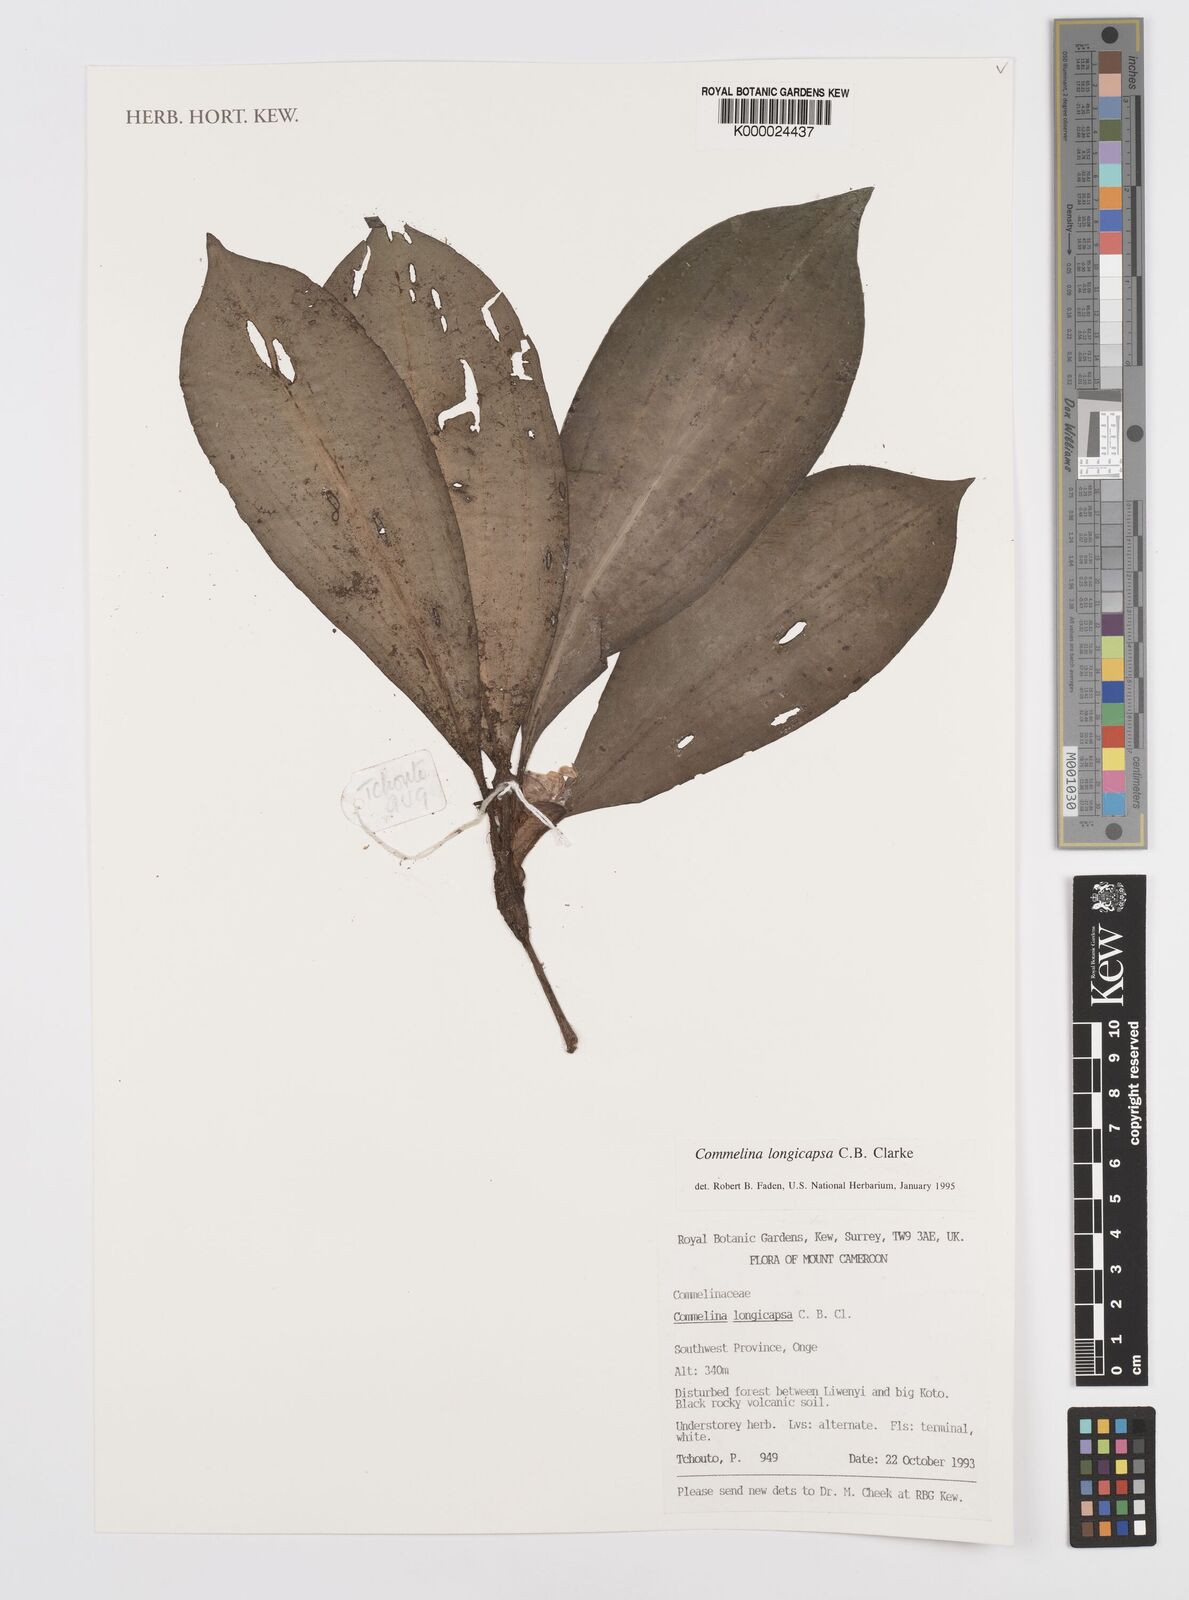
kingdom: Plantae
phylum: Tracheophyta
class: Liliopsida
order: Commelinales
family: Commelinaceae
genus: Commelina
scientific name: Commelina longicapsa
